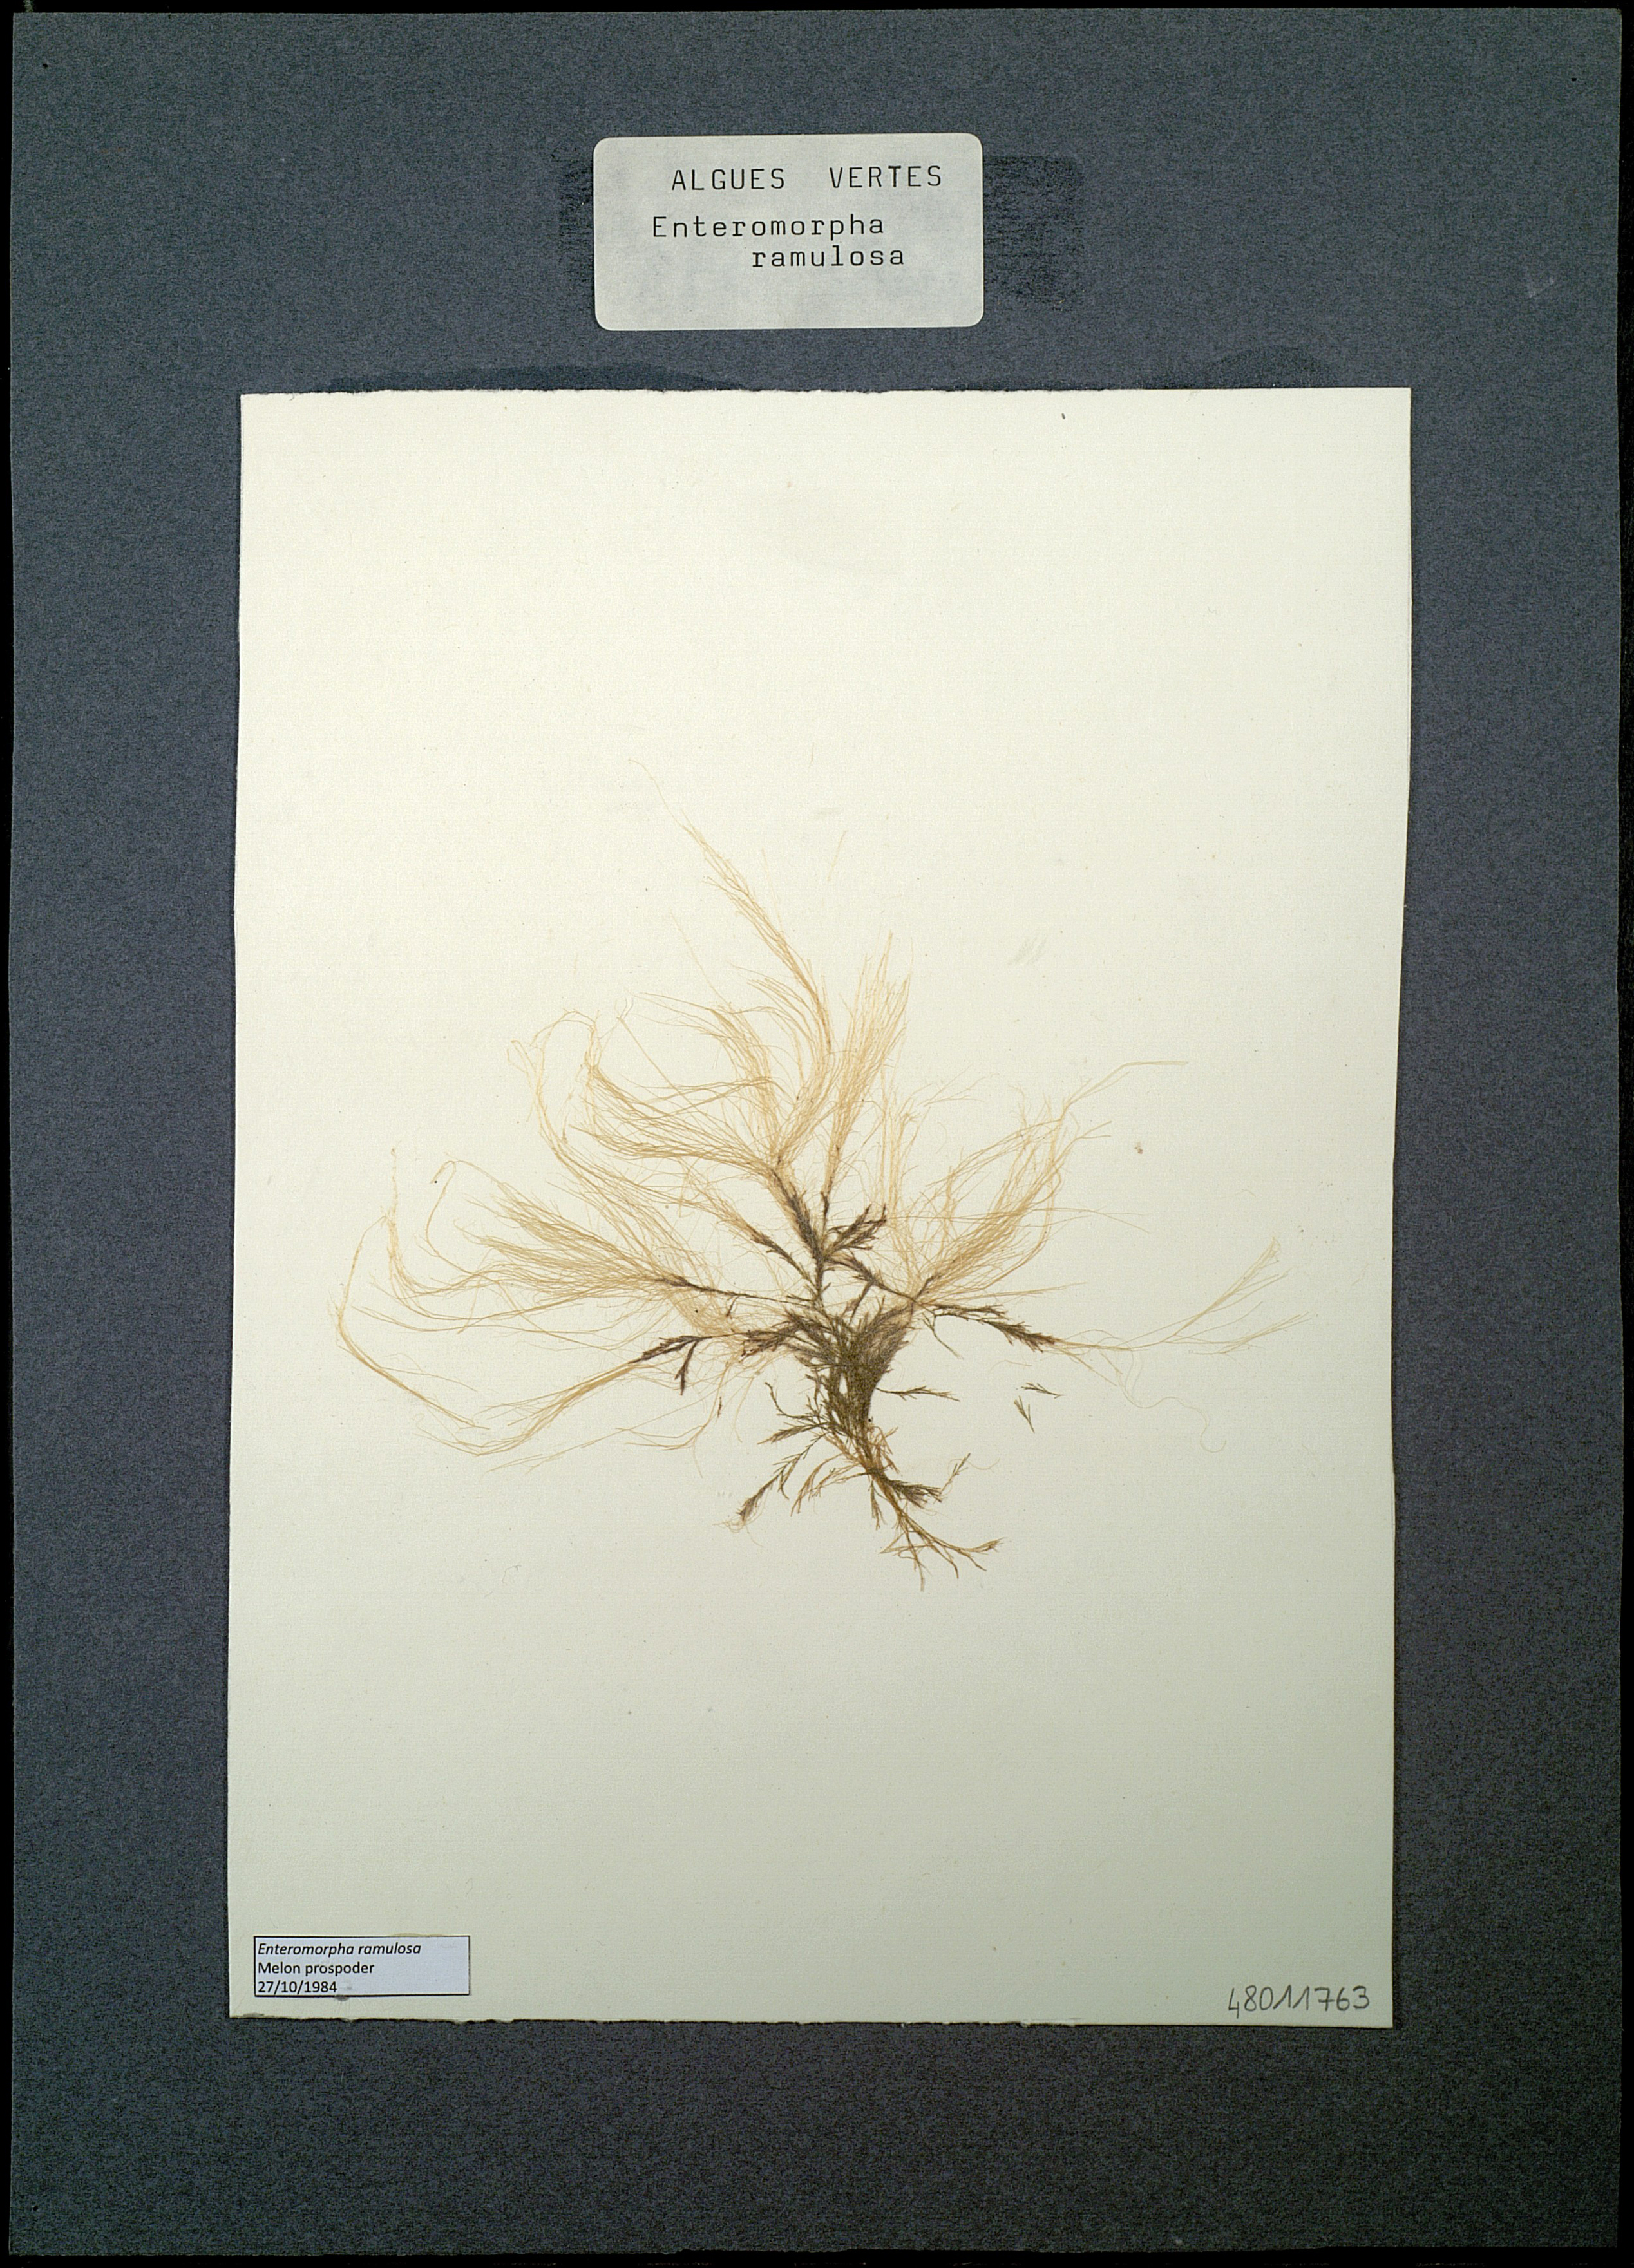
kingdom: Plantae
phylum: Chlorophyta
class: Ulvophyceae
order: Ulvales
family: Ulvaceae
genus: Ulva
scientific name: Ulva clathrata
